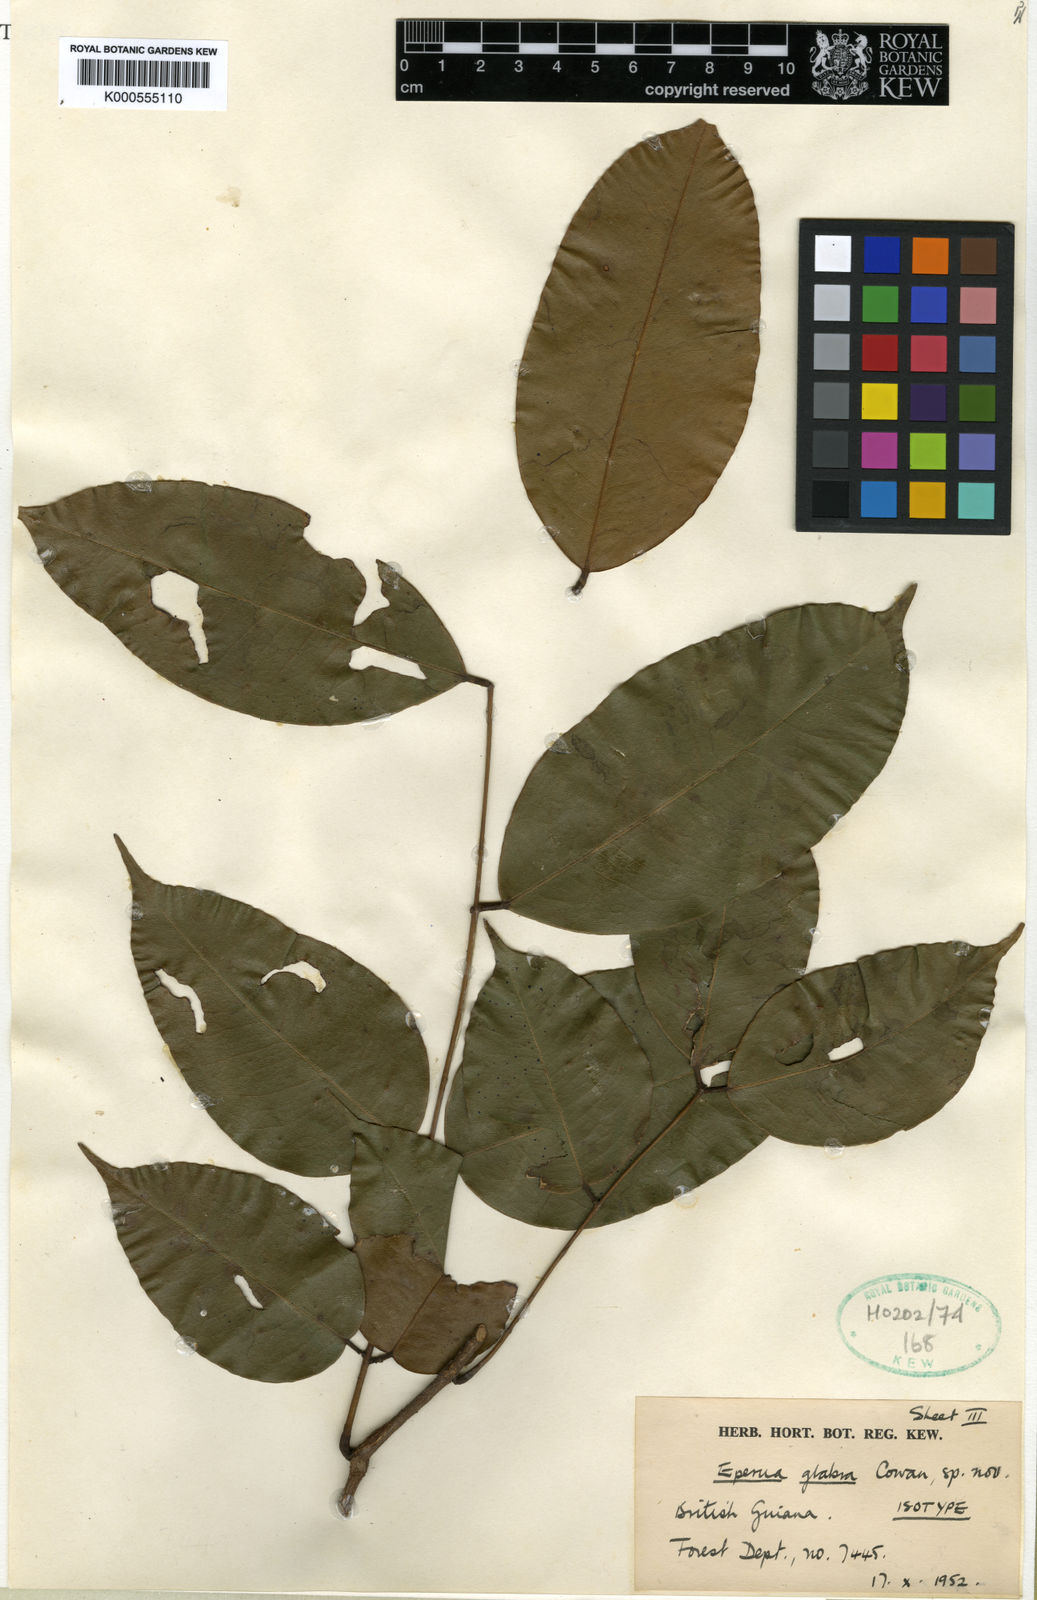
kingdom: Plantae
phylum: Tracheophyta
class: Magnoliopsida
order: Fabales
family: Fabaceae
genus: Eperua
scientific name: Eperua glabra
